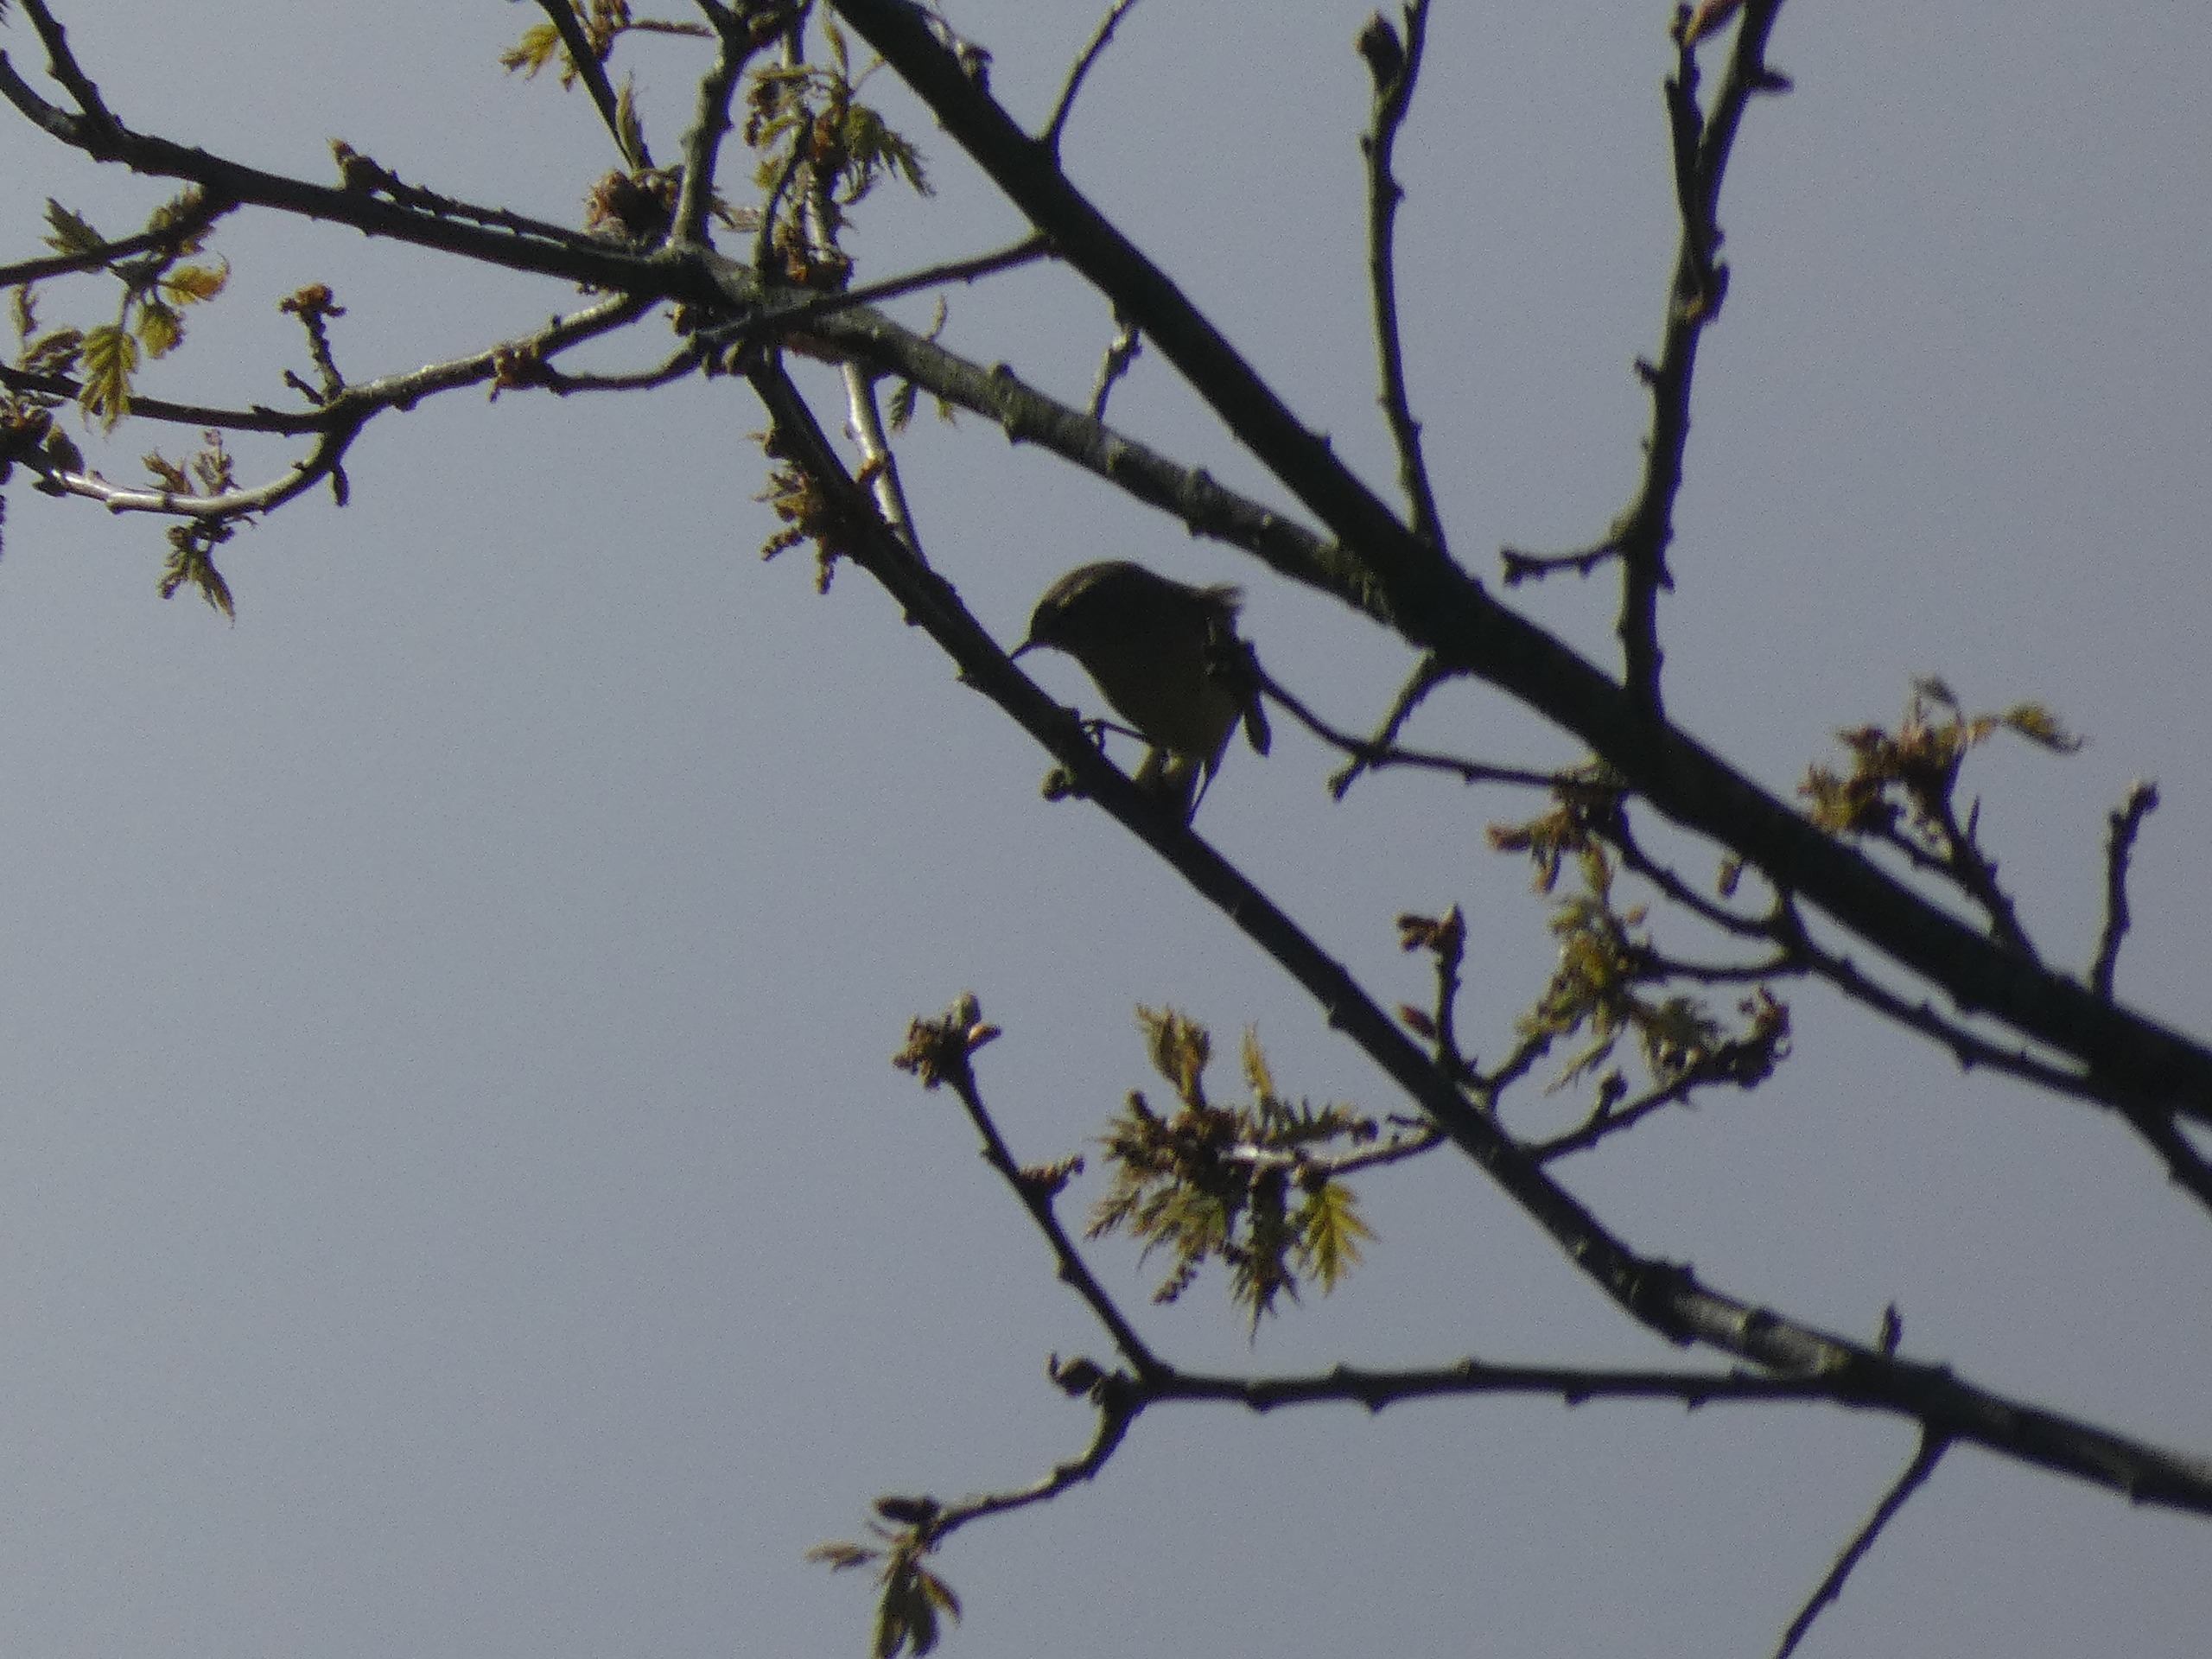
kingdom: Animalia
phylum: Chordata
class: Aves
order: Passeriformes
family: Phylloscopidae
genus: Phylloscopus
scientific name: Phylloscopus collybita
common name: Gransanger
